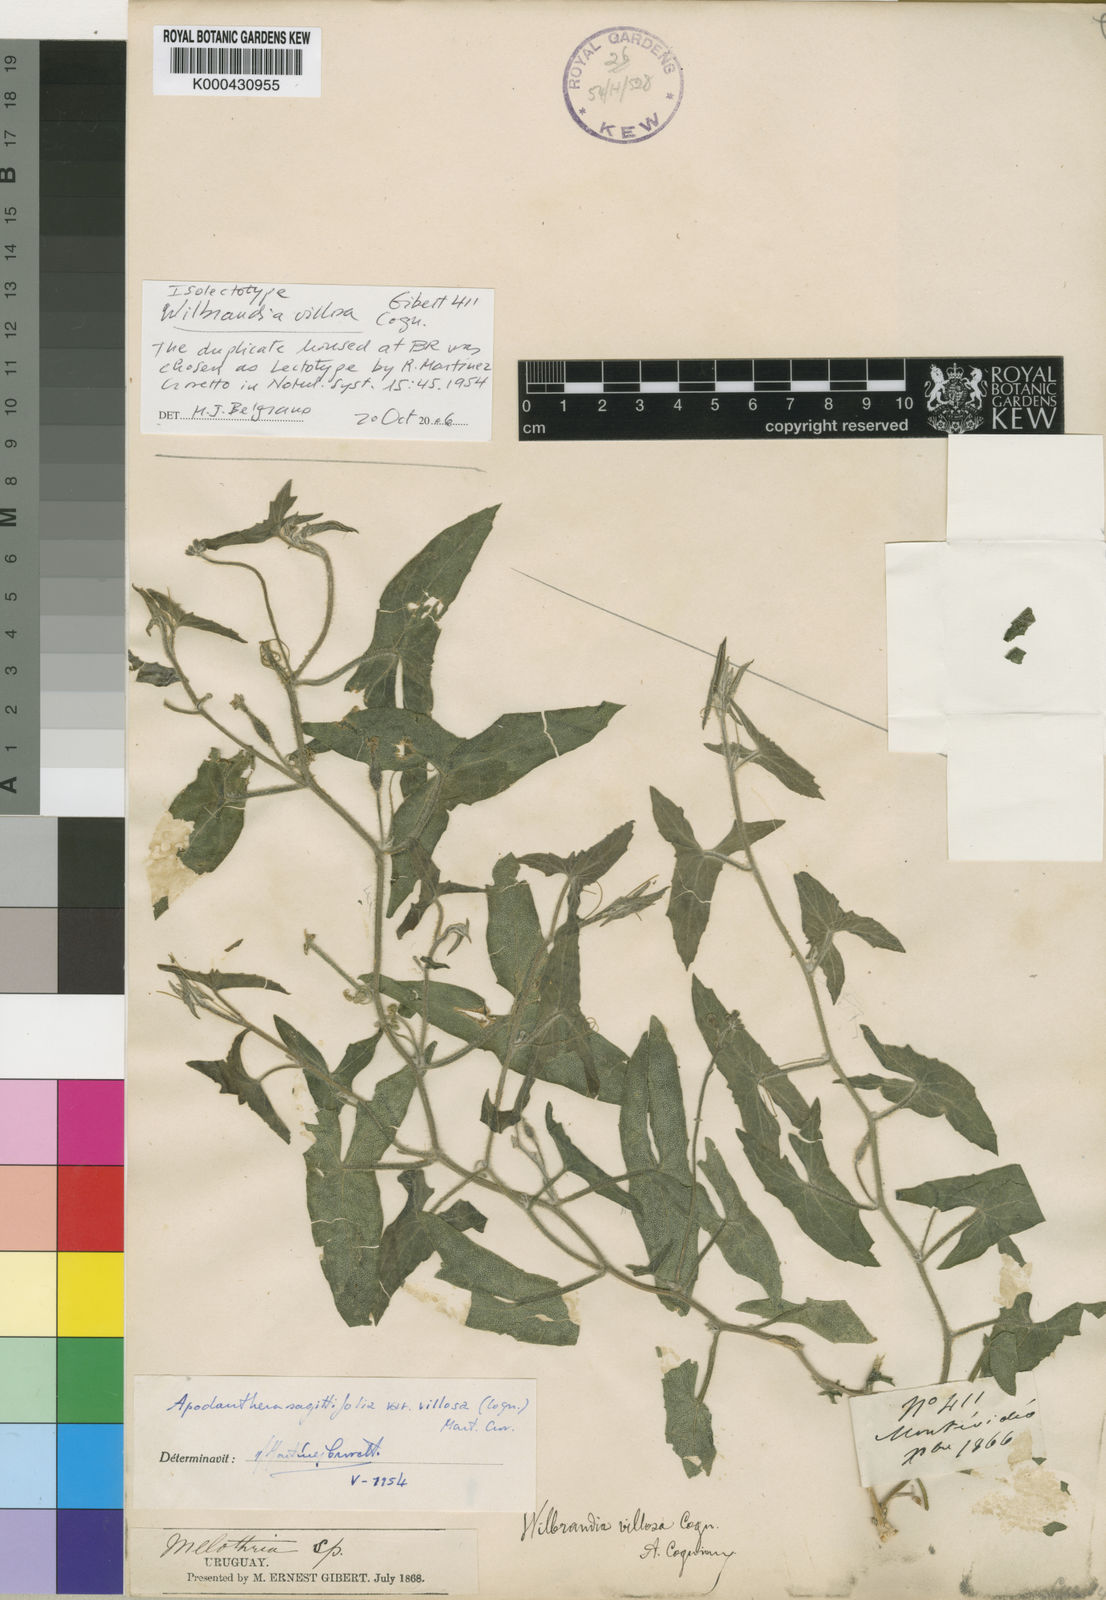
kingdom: Plantae
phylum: Tracheophyta
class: Magnoliopsida
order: Cucurbitales
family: Cucurbitaceae
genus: Apodanthera
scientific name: Apodanthera linearis
